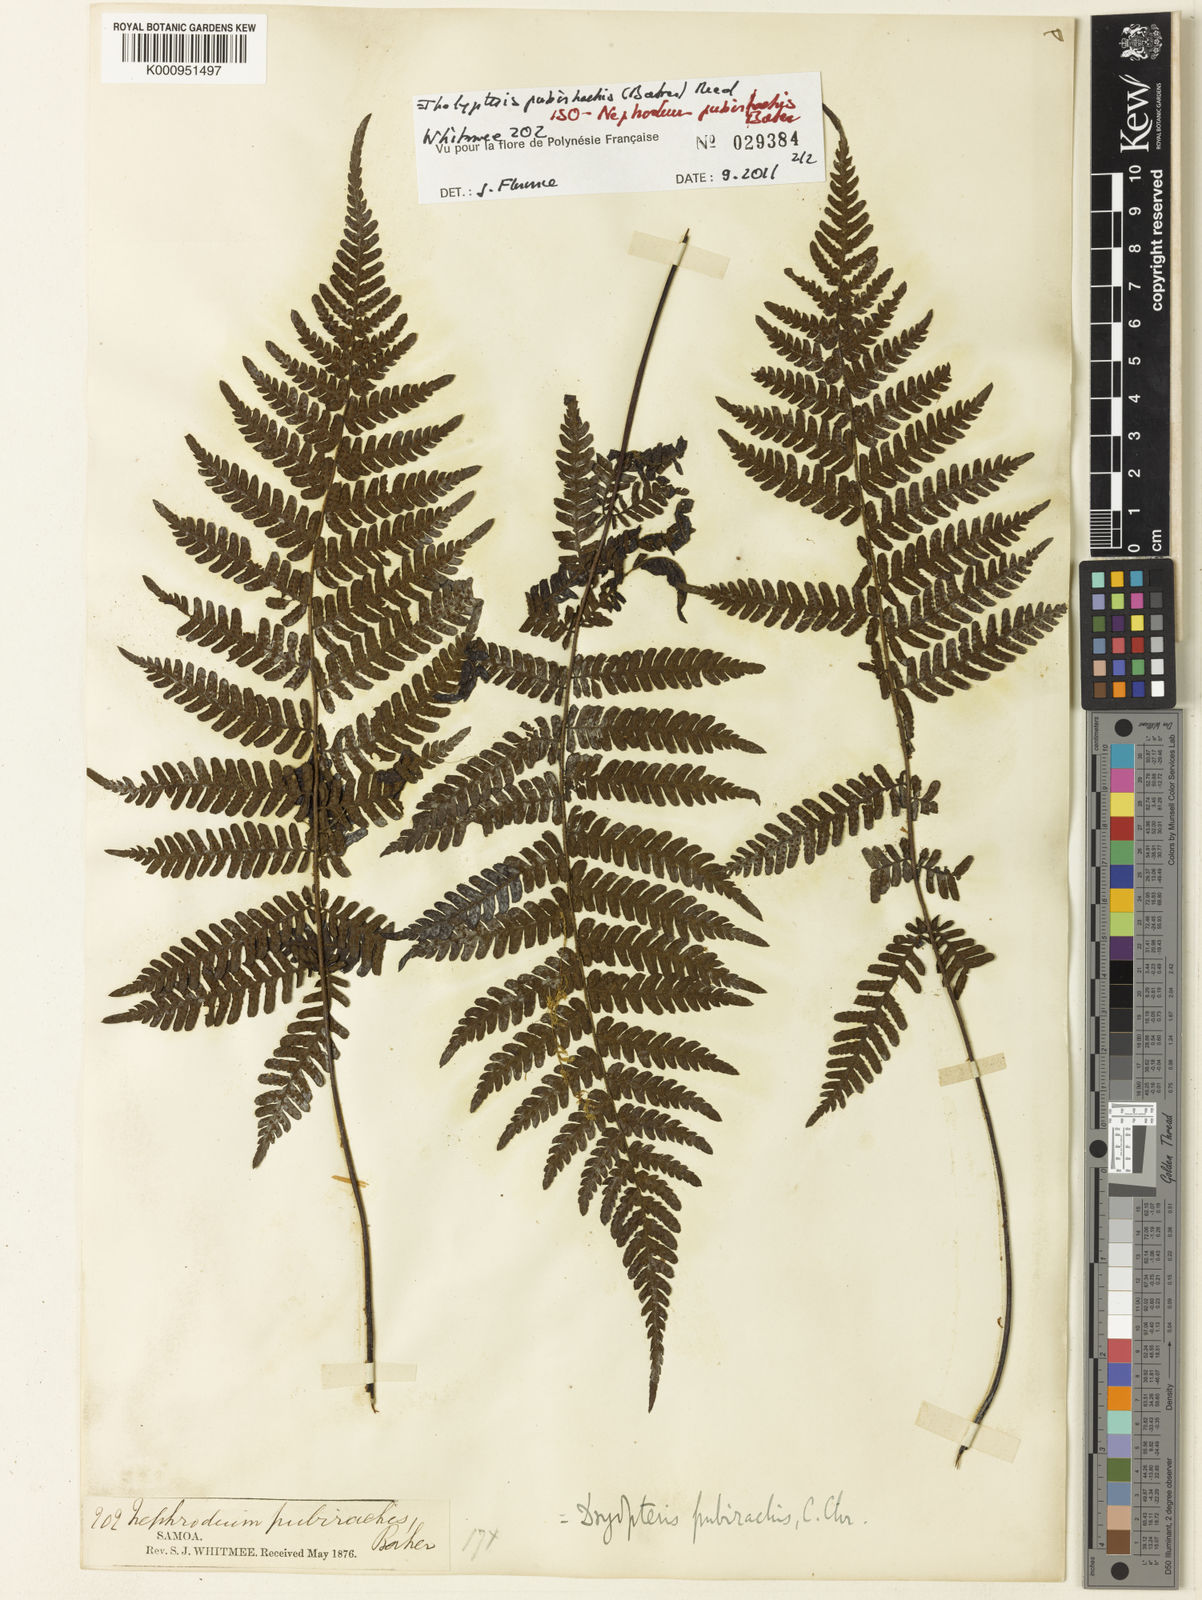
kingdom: Plantae
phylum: Tracheophyta
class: Polypodiopsida
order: Polypodiales
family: Thelypteridaceae
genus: Coryphopteris
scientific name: Coryphopteris pubirachis
